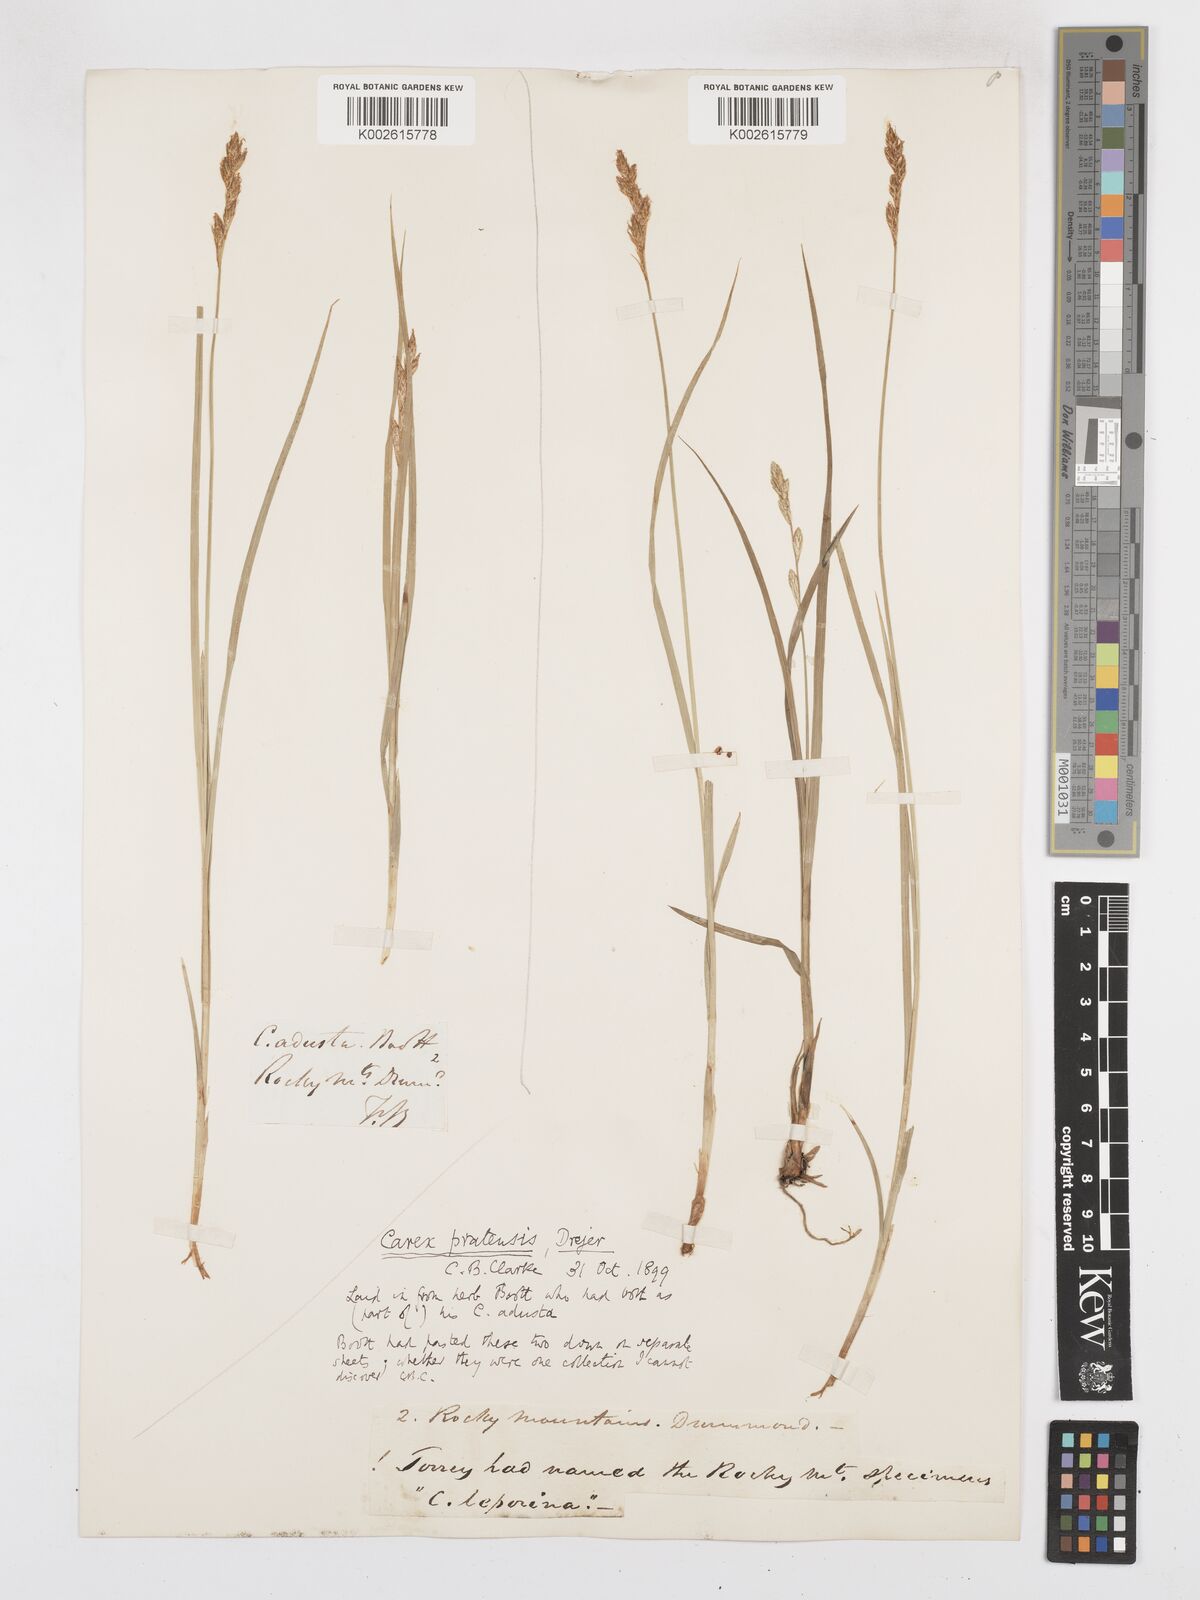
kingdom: Plantae
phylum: Tracheophyta
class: Liliopsida
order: Poales
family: Cyperaceae
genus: Carex
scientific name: Carex praticola
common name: Large-fruited oval sedge
